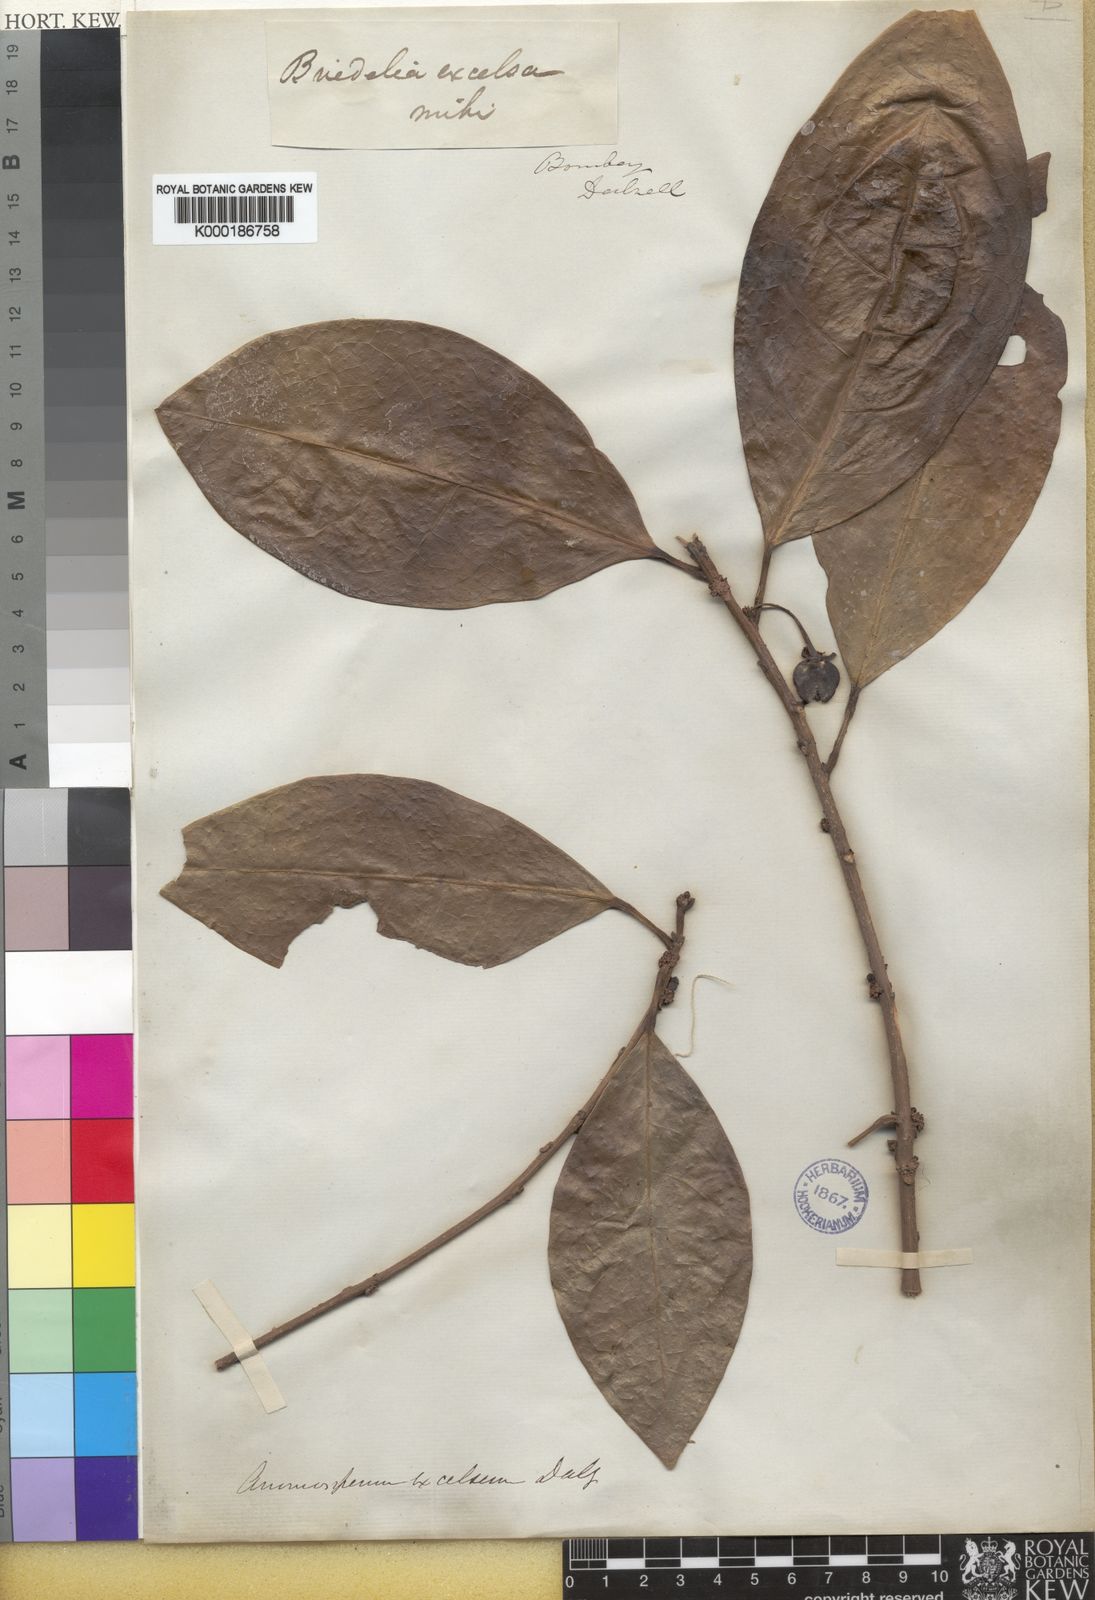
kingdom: Plantae
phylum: Tracheophyta
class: Magnoliopsida
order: Malpighiales
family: Phyllanthaceae
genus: Actephila
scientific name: Actephila
